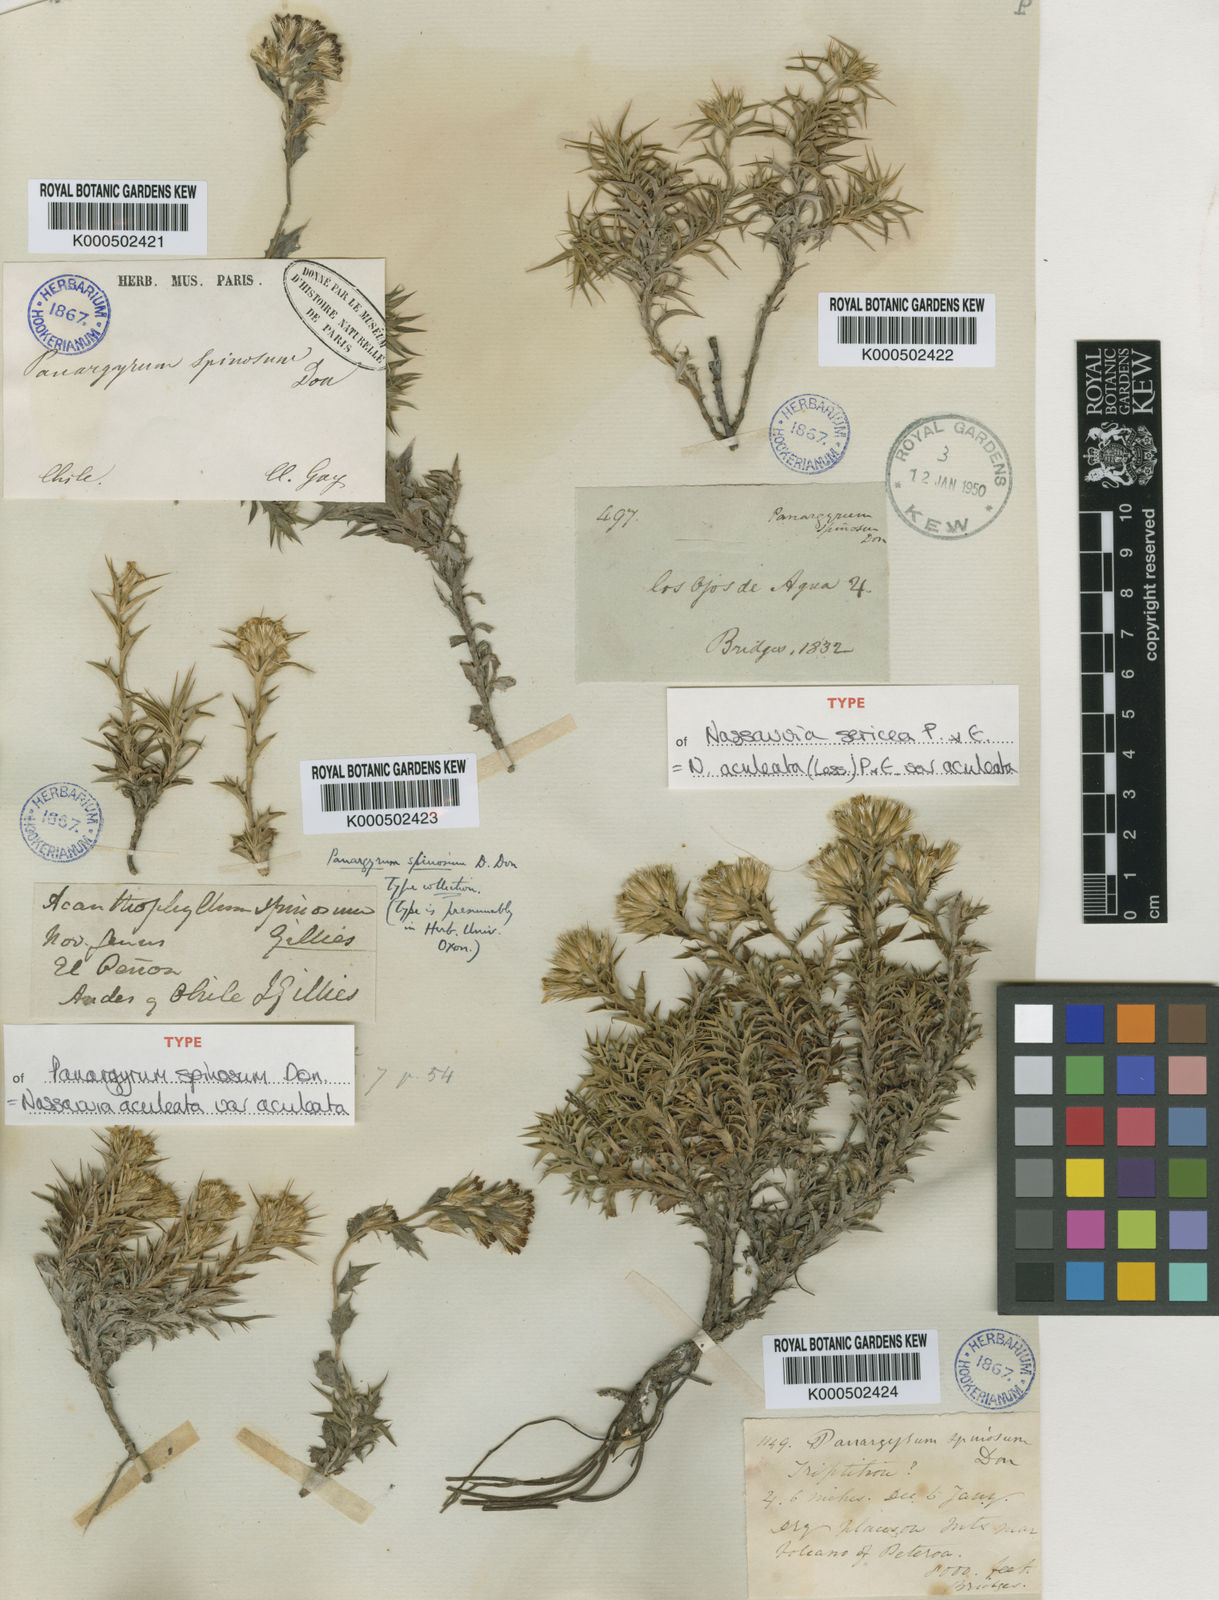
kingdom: Plantae
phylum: Tracheophyta
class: Magnoliopsida
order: Asterales
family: Asteraceae
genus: Nassauvia
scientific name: Nassauvia aculeata
